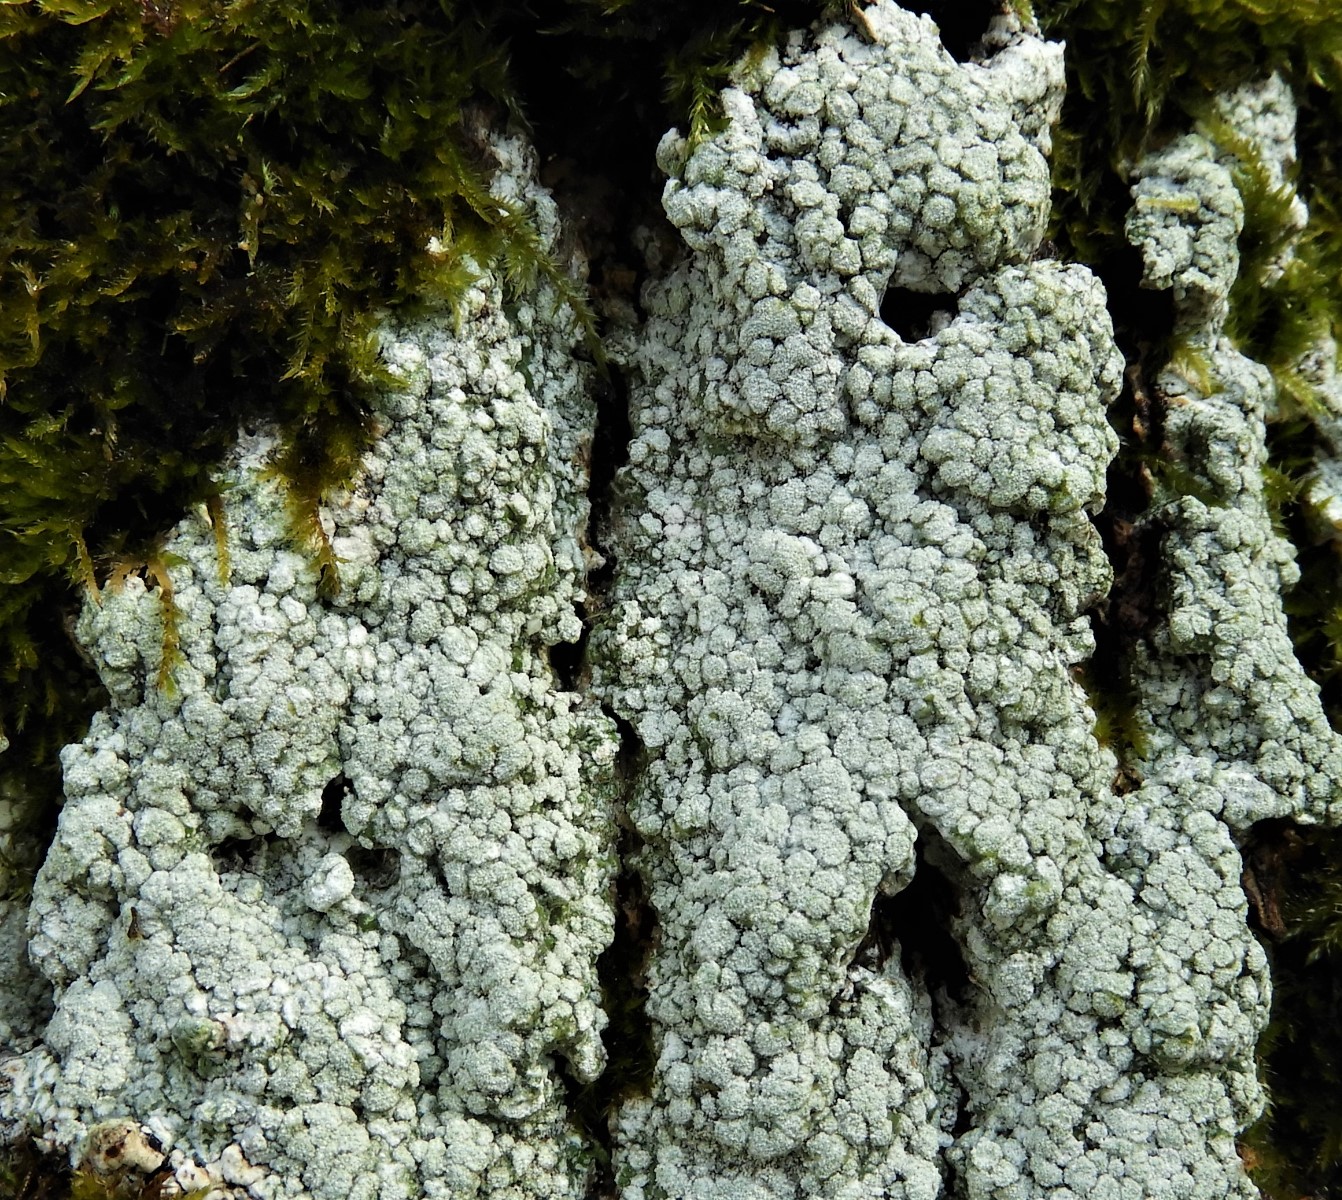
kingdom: Fungi
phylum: Ascomycota
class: Lecanoromycetes
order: Pertusariales
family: Pertusariaceae
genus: Lepra
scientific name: Lepra amara
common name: bitter prikvortelav
